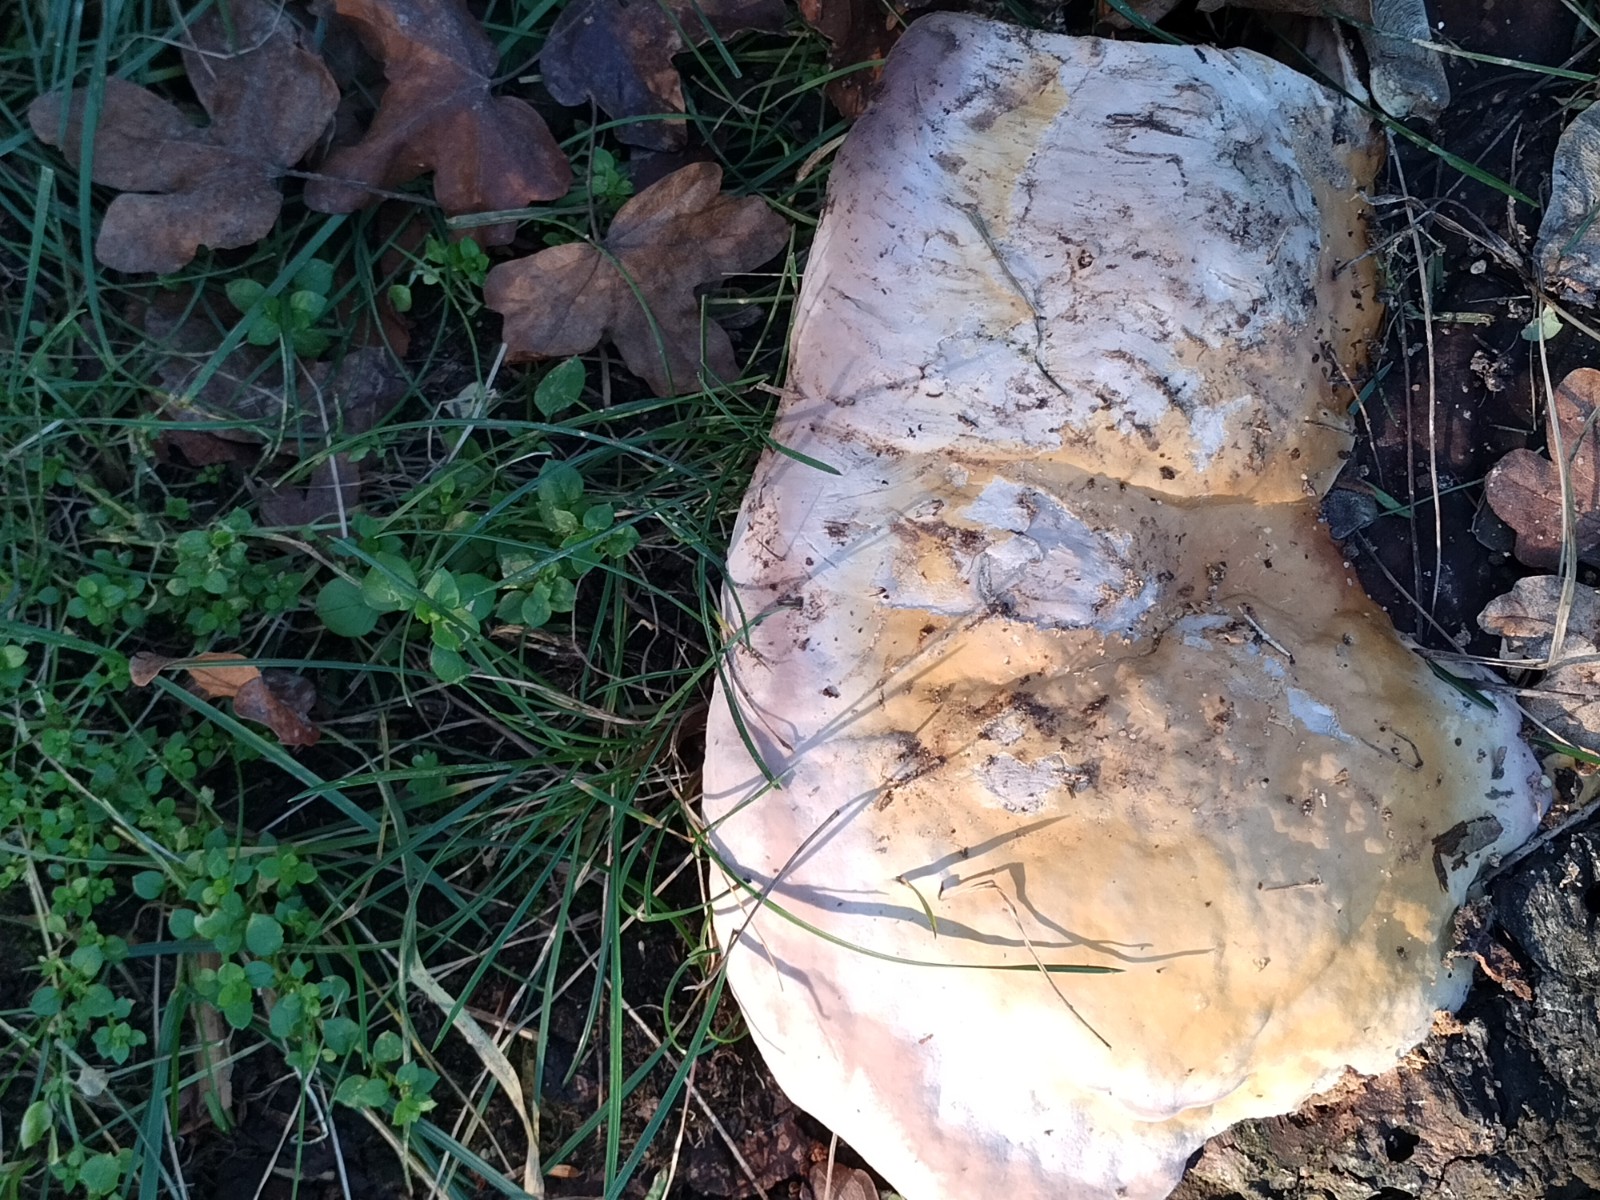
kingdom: Fungi
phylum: Basidiomycota
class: Agaricomycetes
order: Polyporales
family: Fomitopsidaceae
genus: Fomitopsis
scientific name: Fomitopsis pinicola
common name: randbæltet hovporesvamp
